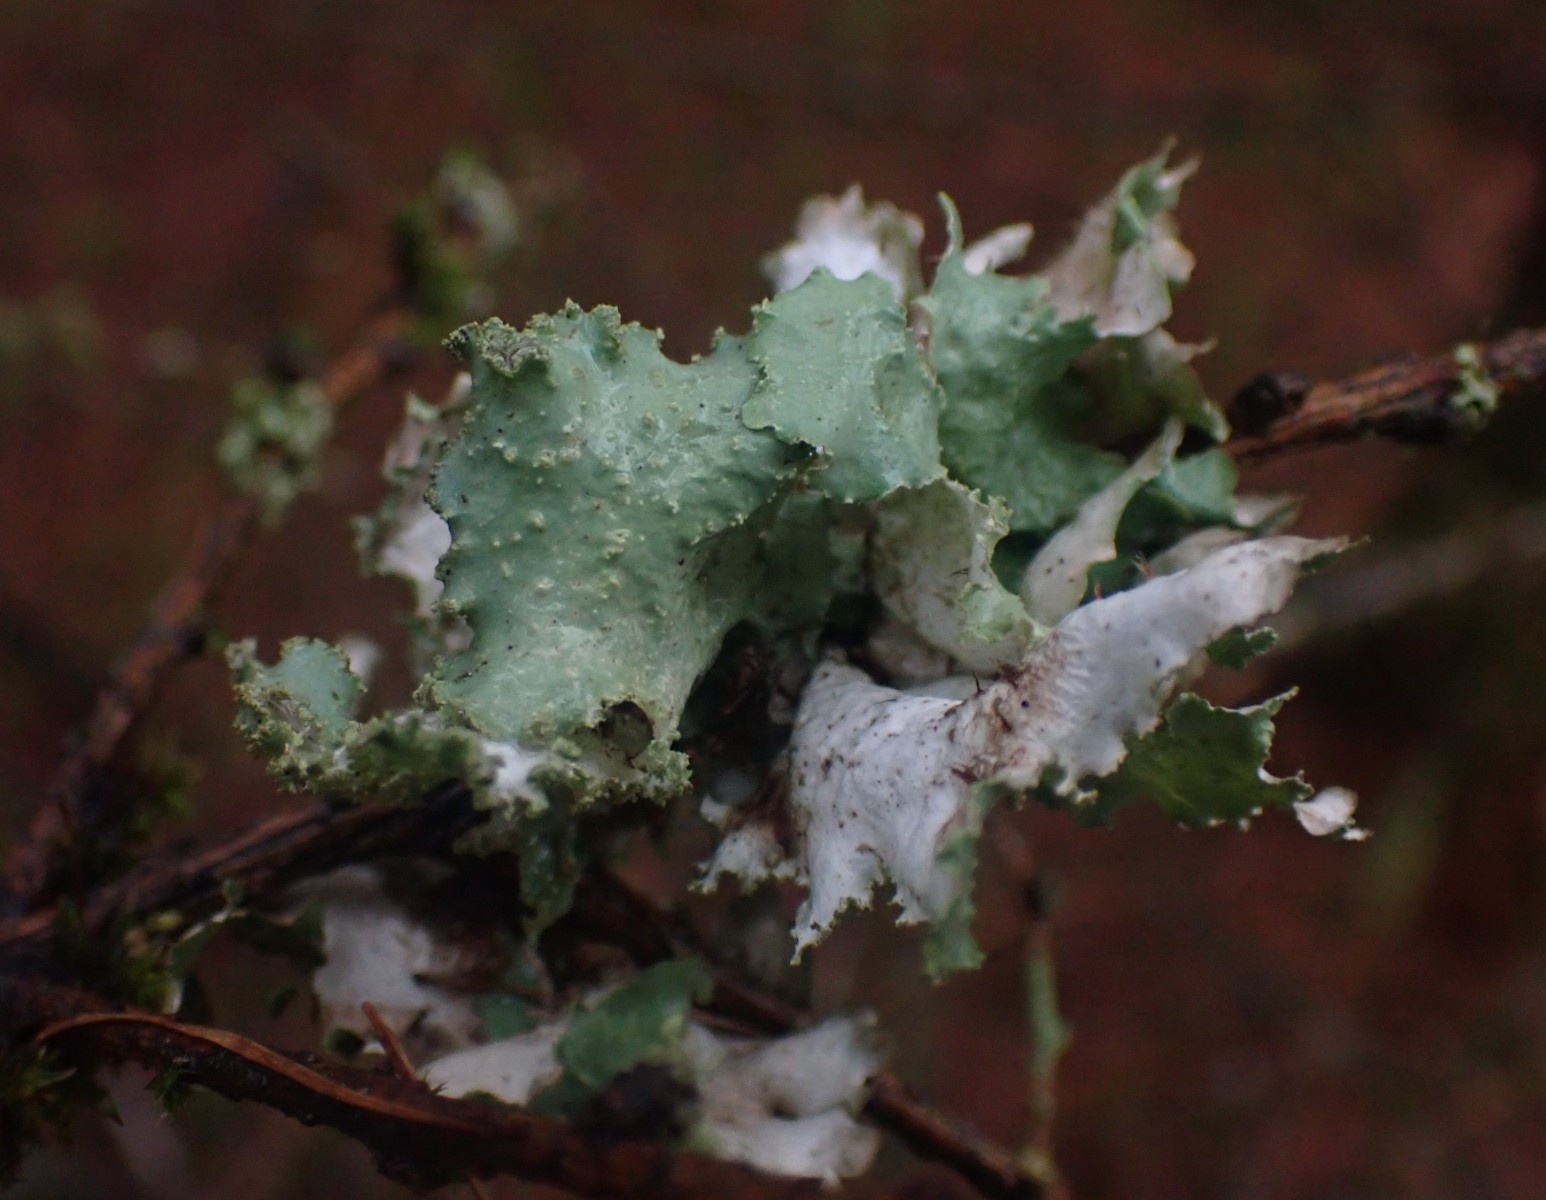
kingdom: Fungi
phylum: Ascomycota
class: Lecanoromycetes
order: Lecanorales
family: Parmeliaceae
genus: Platismatia
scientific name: Platismatia glauca
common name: blågrå papirlav
